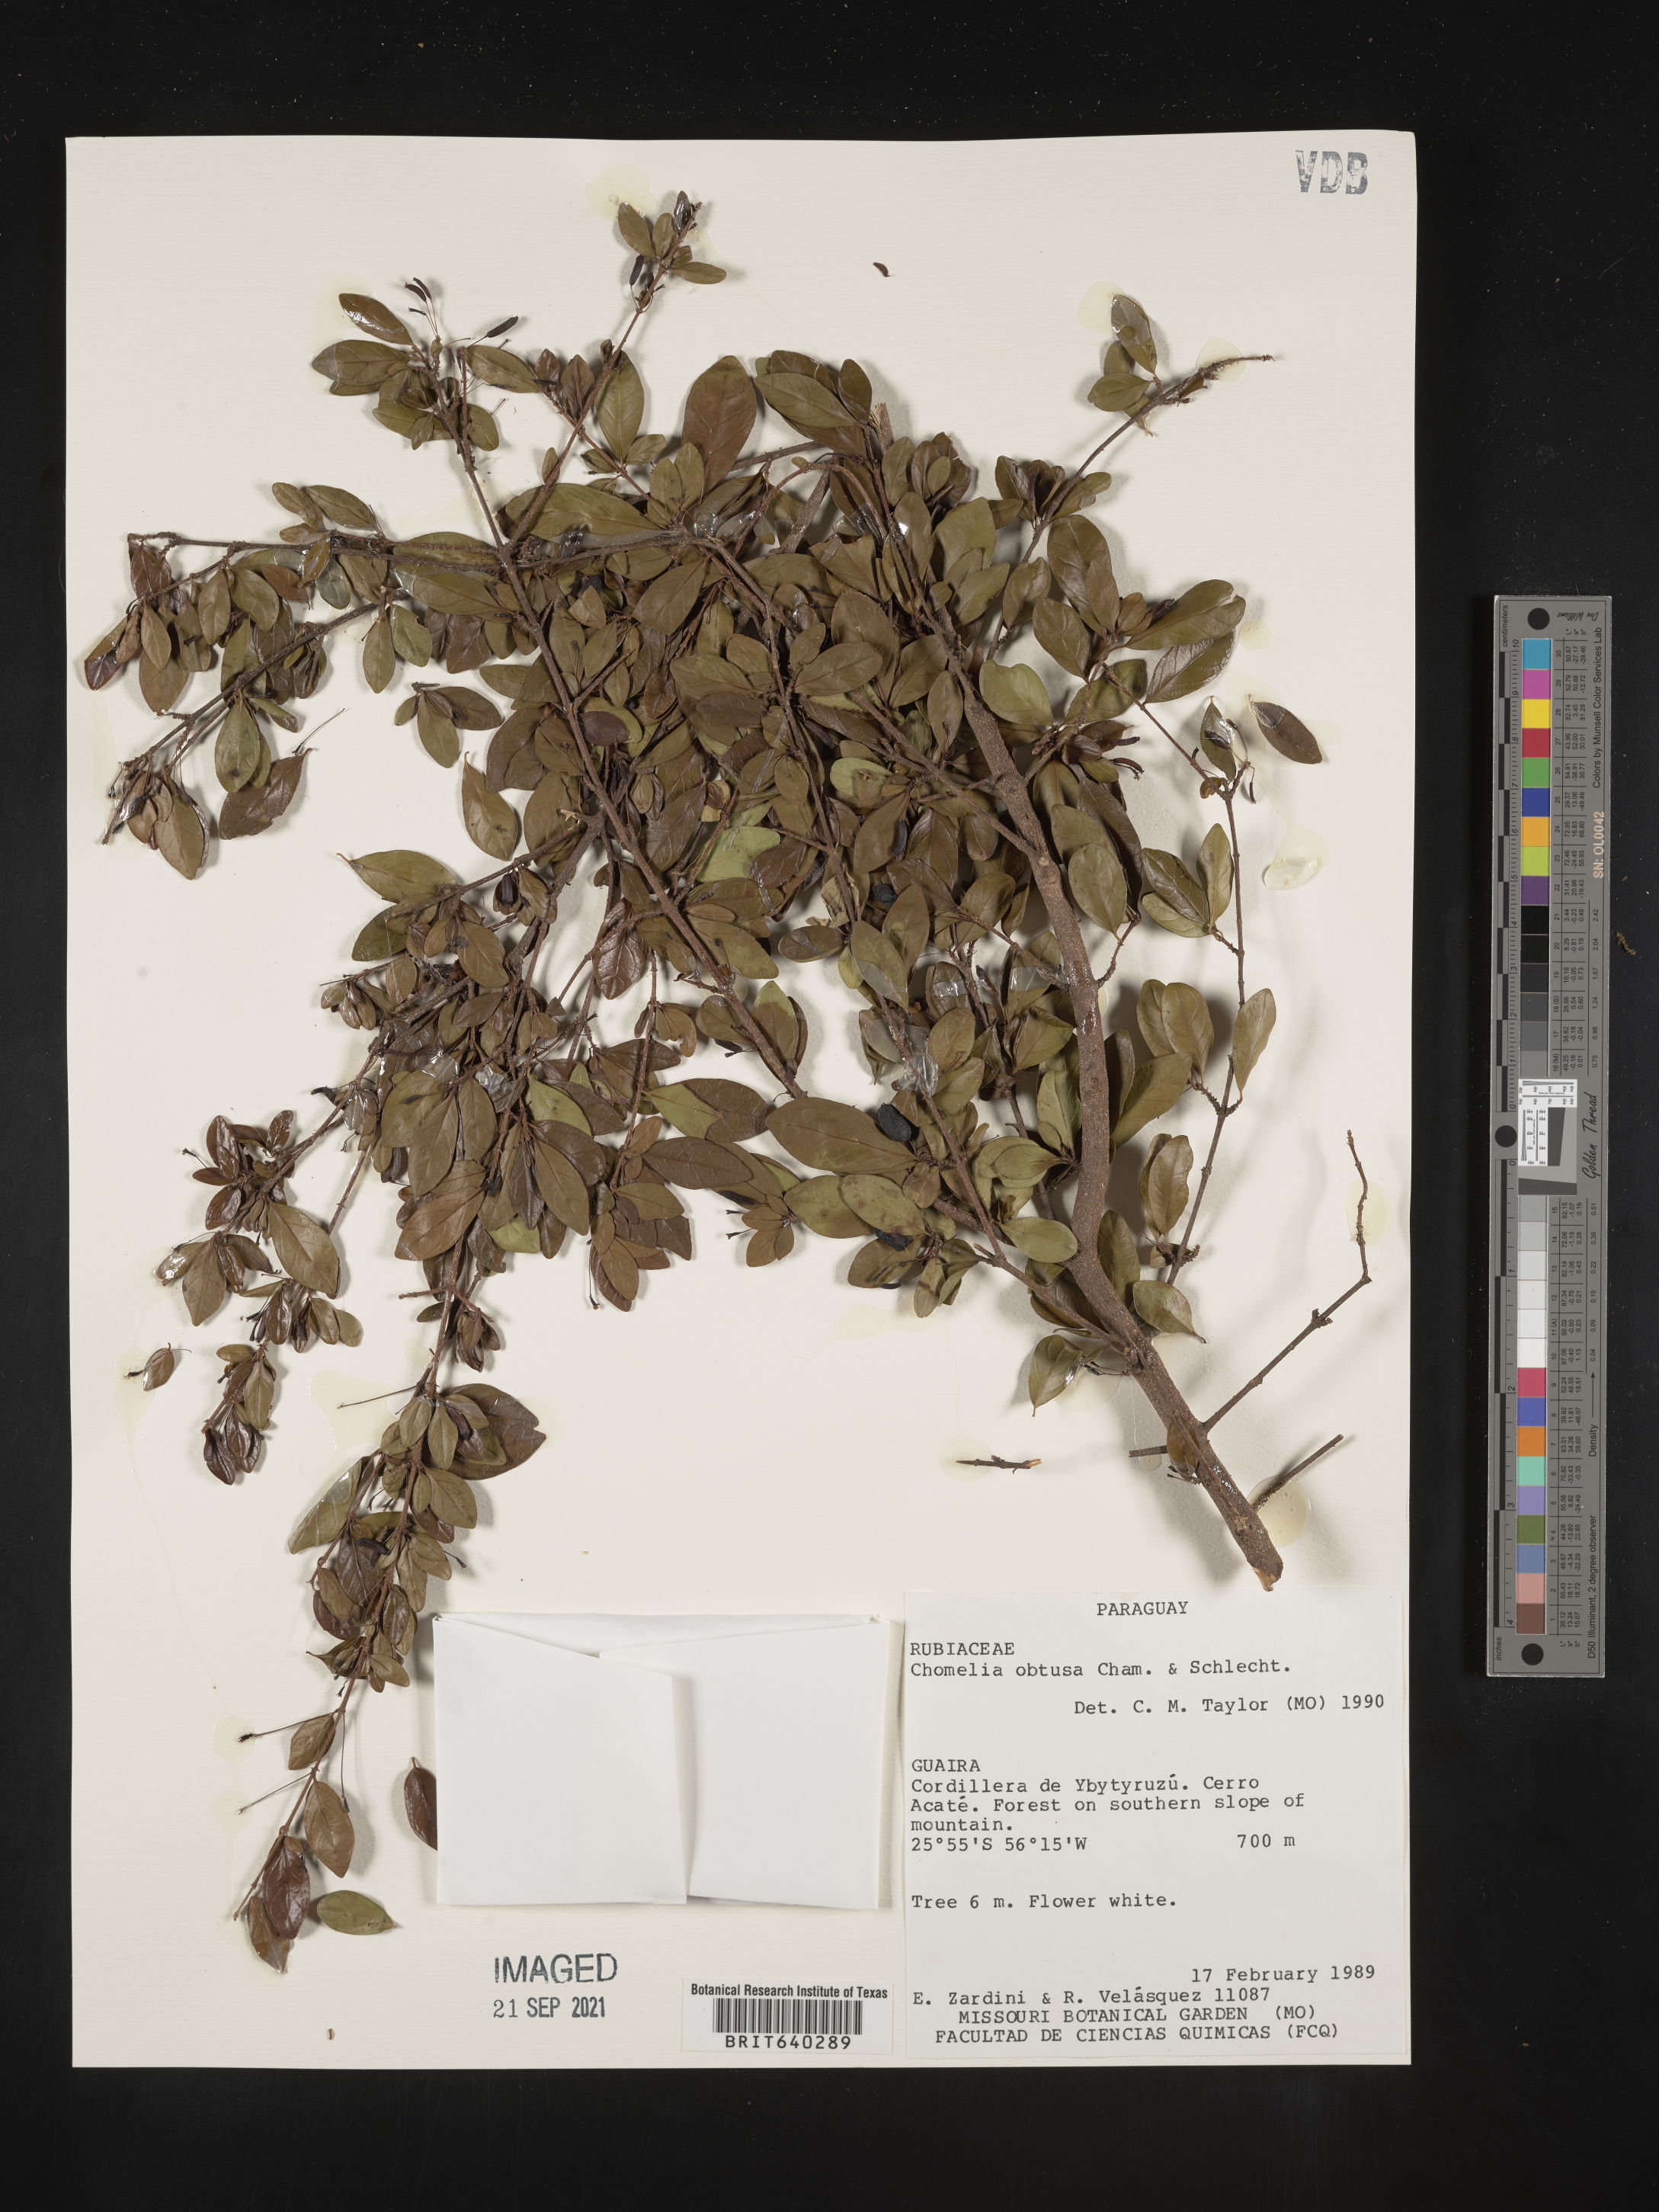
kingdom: Plantae
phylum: Tracheophyta
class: Magnoliopsida
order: Gentianales
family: Rubiaceae
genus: Chomelia
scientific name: Chomelia
